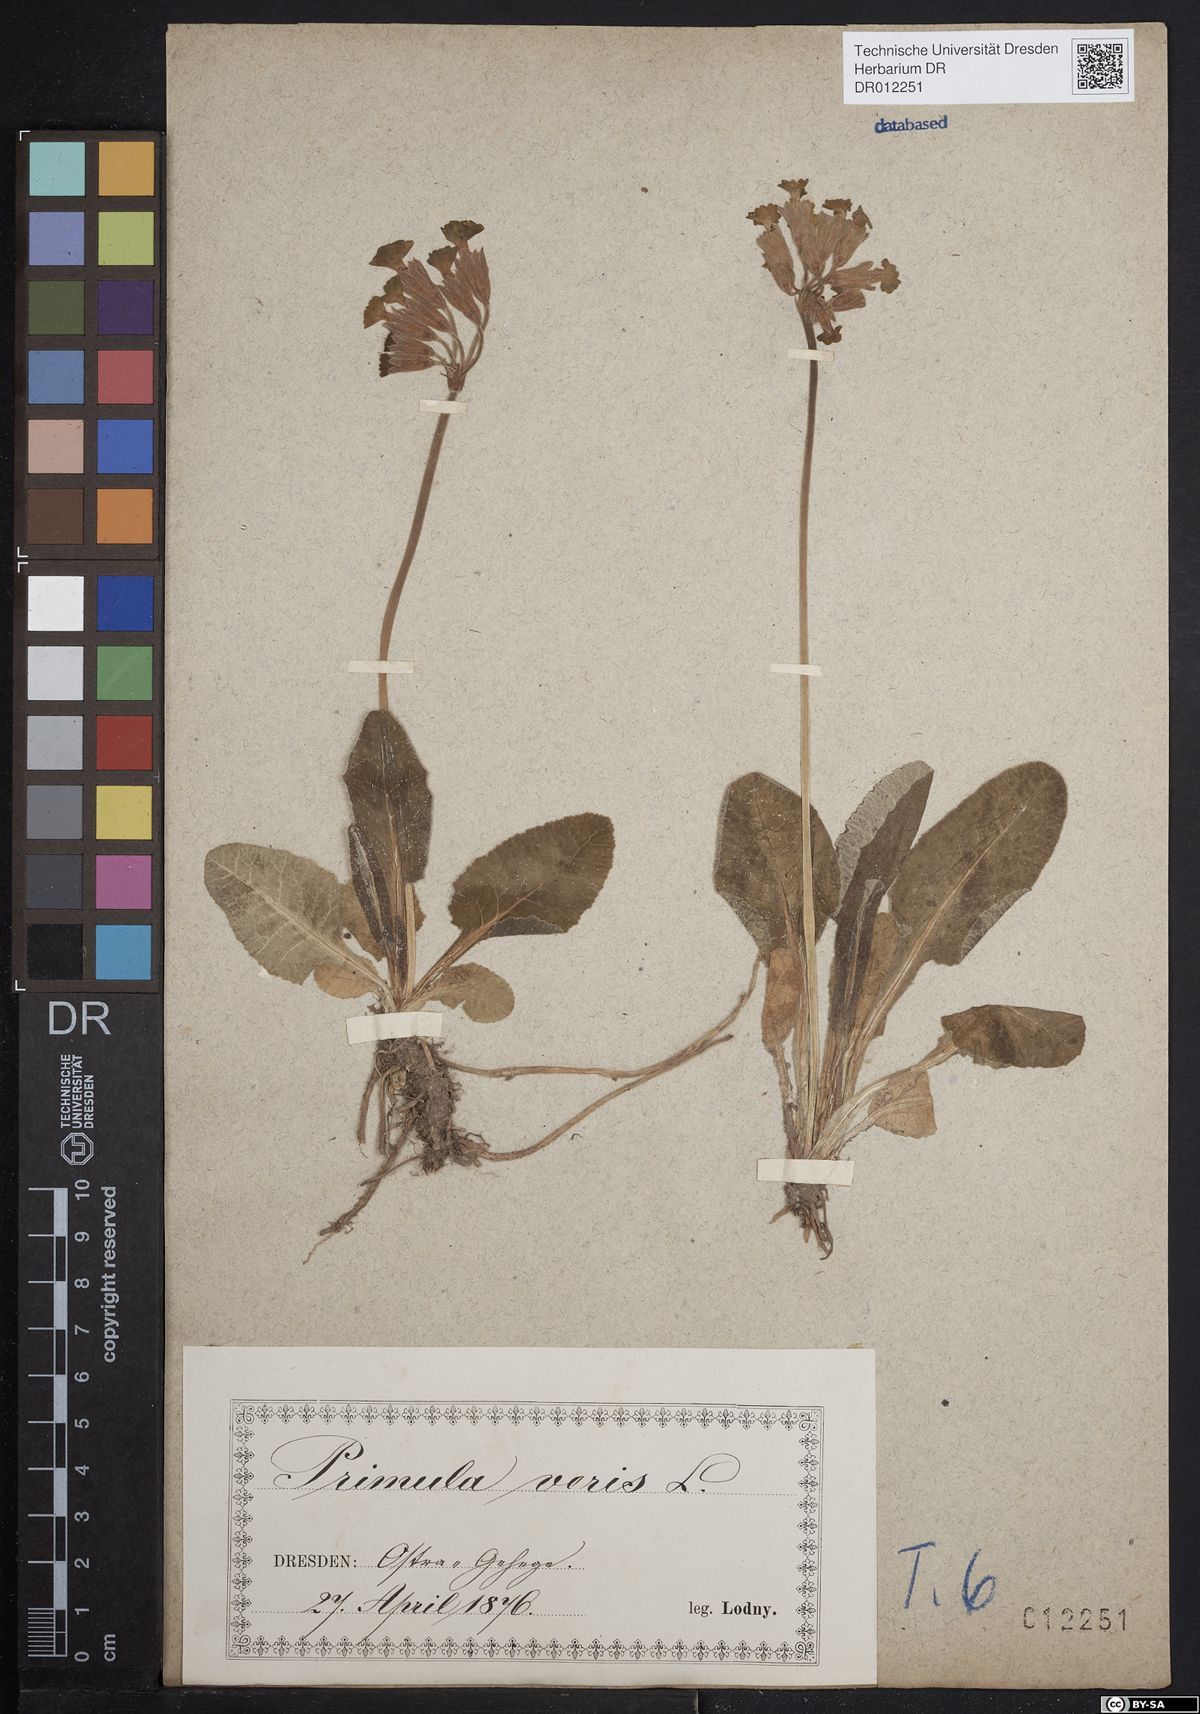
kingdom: Plantae
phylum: Tracheophyta
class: Magnoliopsida
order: Ericales
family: Primulaceae
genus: Primula
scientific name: Primula veris
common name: Cowslip
